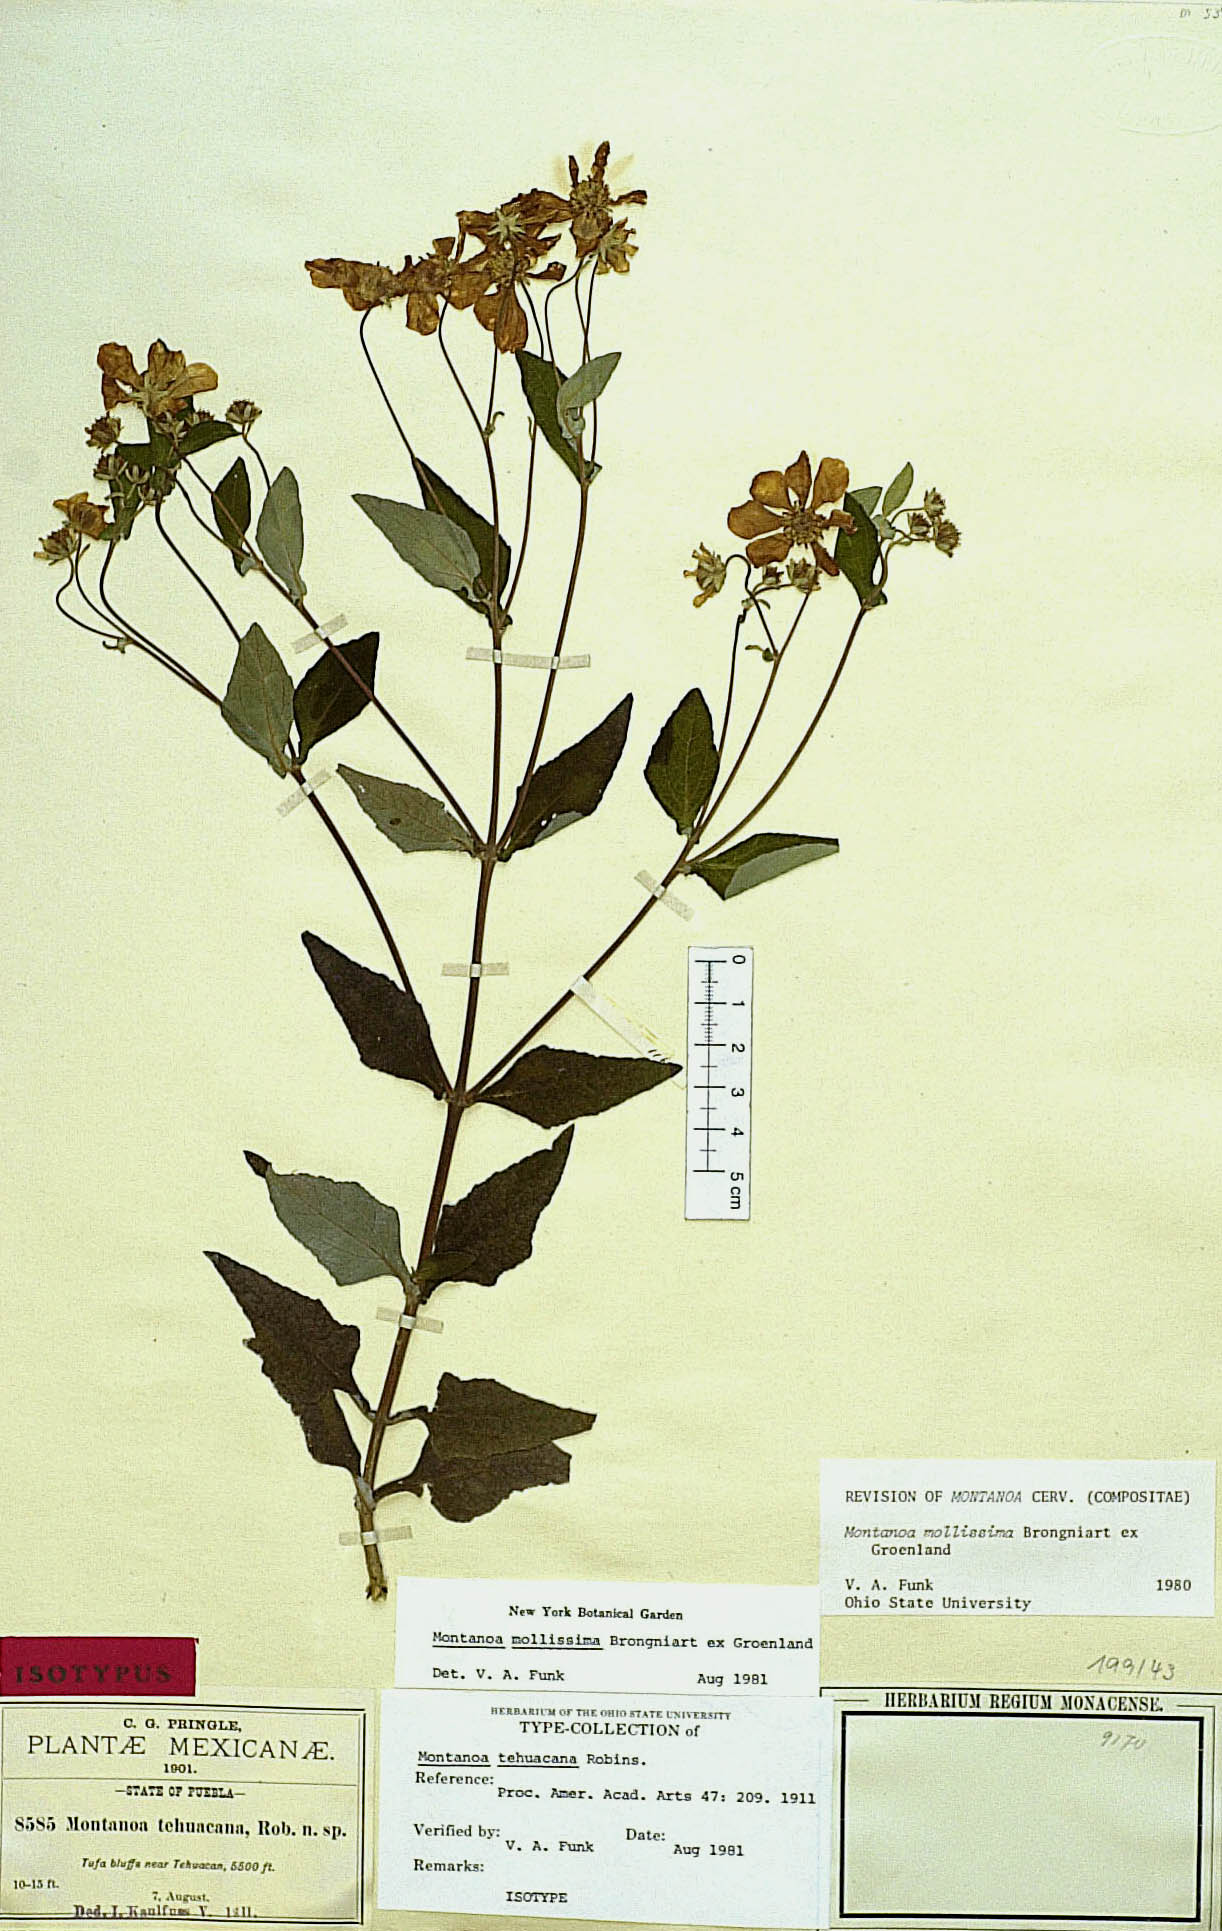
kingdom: Plantae
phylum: Tracheophyta
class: Magnoliopsida
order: Asterales
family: Asteraceae
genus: Montanoa
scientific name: Montanoa tehuacana
